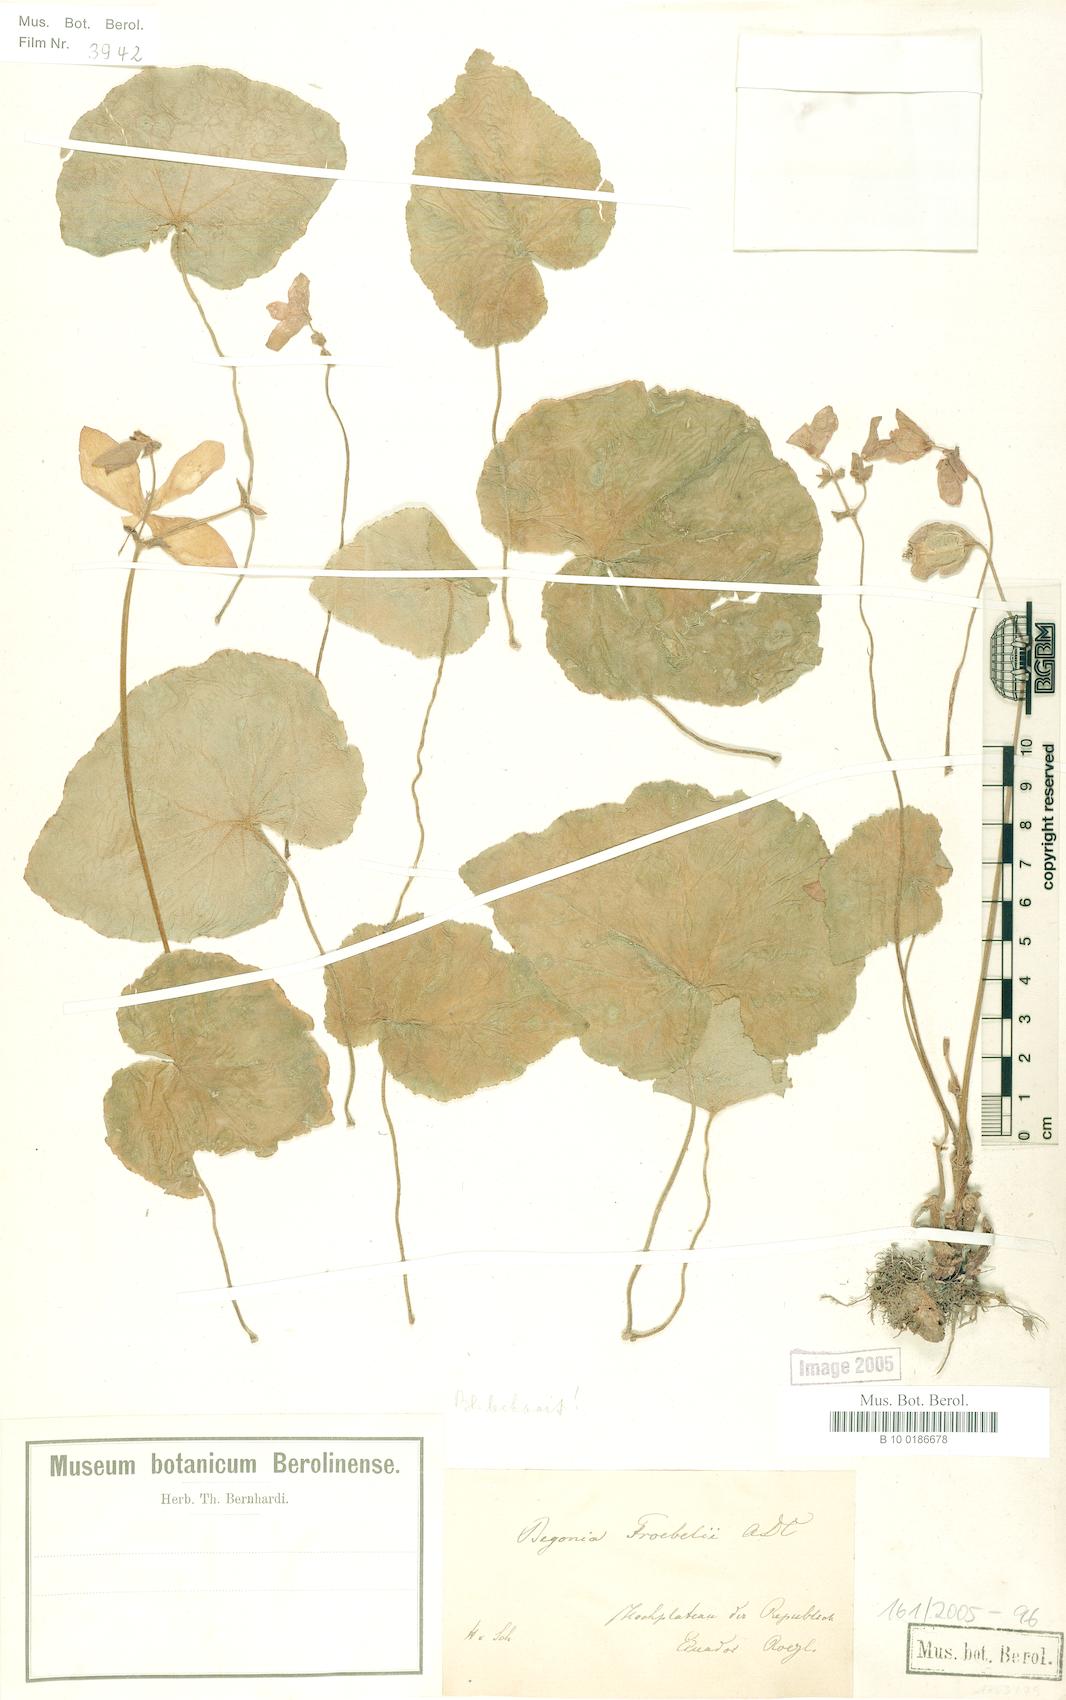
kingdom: Plantae
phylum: Tracheophyta
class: Magnoliopsida
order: Cucurbitales
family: Begoniaceae
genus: Begonia
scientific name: Begonia froebelii
